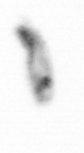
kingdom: Animalia
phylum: Arthropoda
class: Copepoda
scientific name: Copepoda
